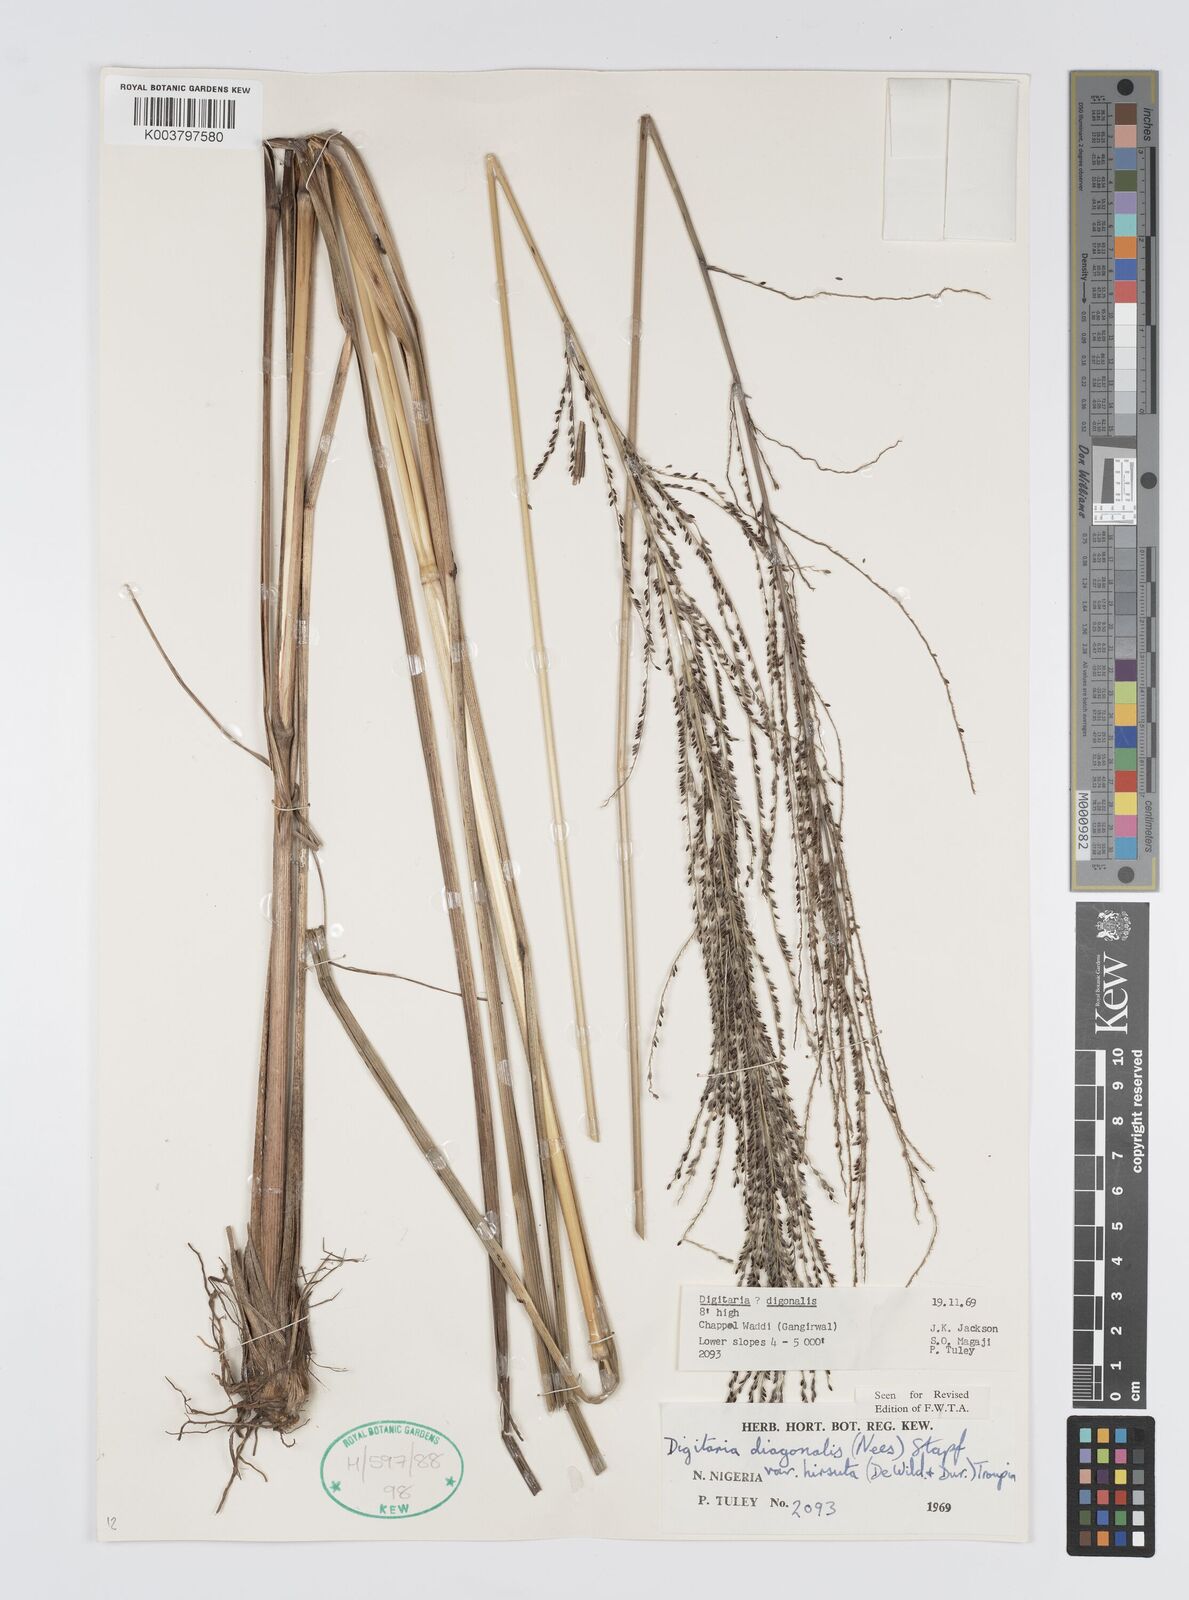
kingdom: Plantae
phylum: Tracheophyta
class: Liliopsida
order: Poales
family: Poaceae
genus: Digitaria
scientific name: Digitaria diagonalis
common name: Brown-seed finger grass
